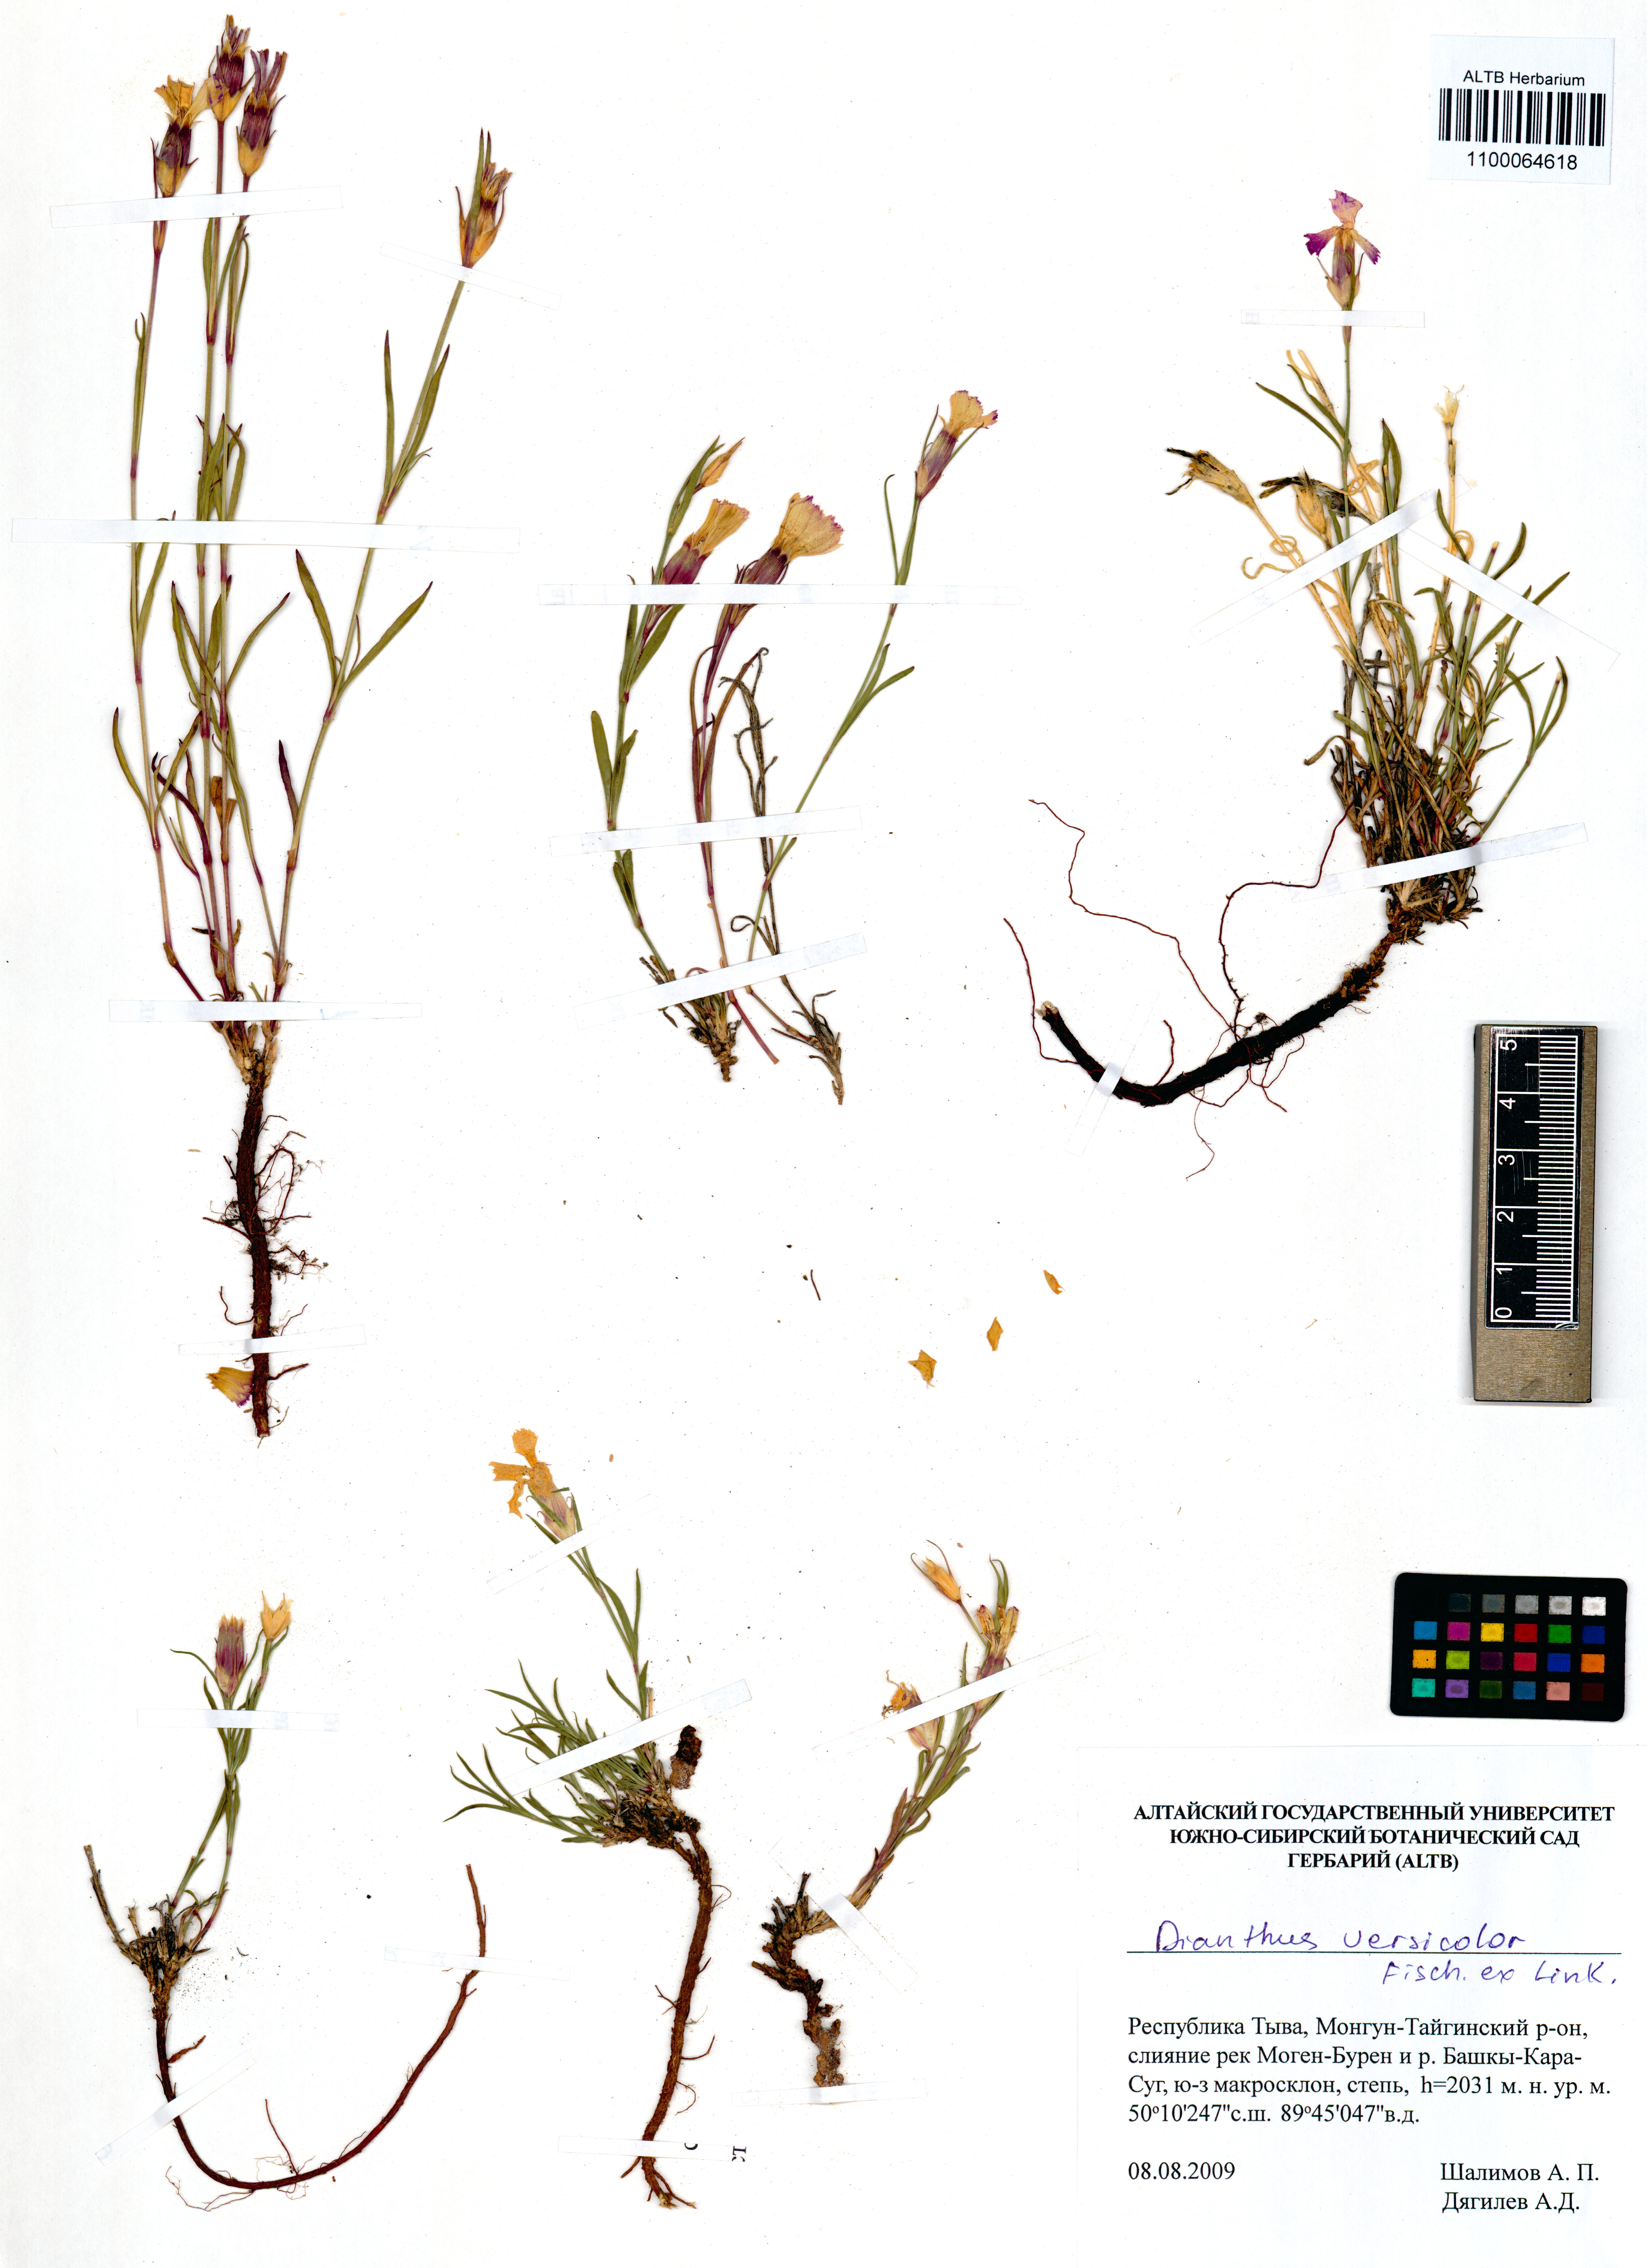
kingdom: Plantae
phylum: Tracheophyta
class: Magnoliopsida
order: Caryophyllales
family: Caryophyllaceae
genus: Dianthus
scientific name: Dianthus chinensis
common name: Rainbow pink
